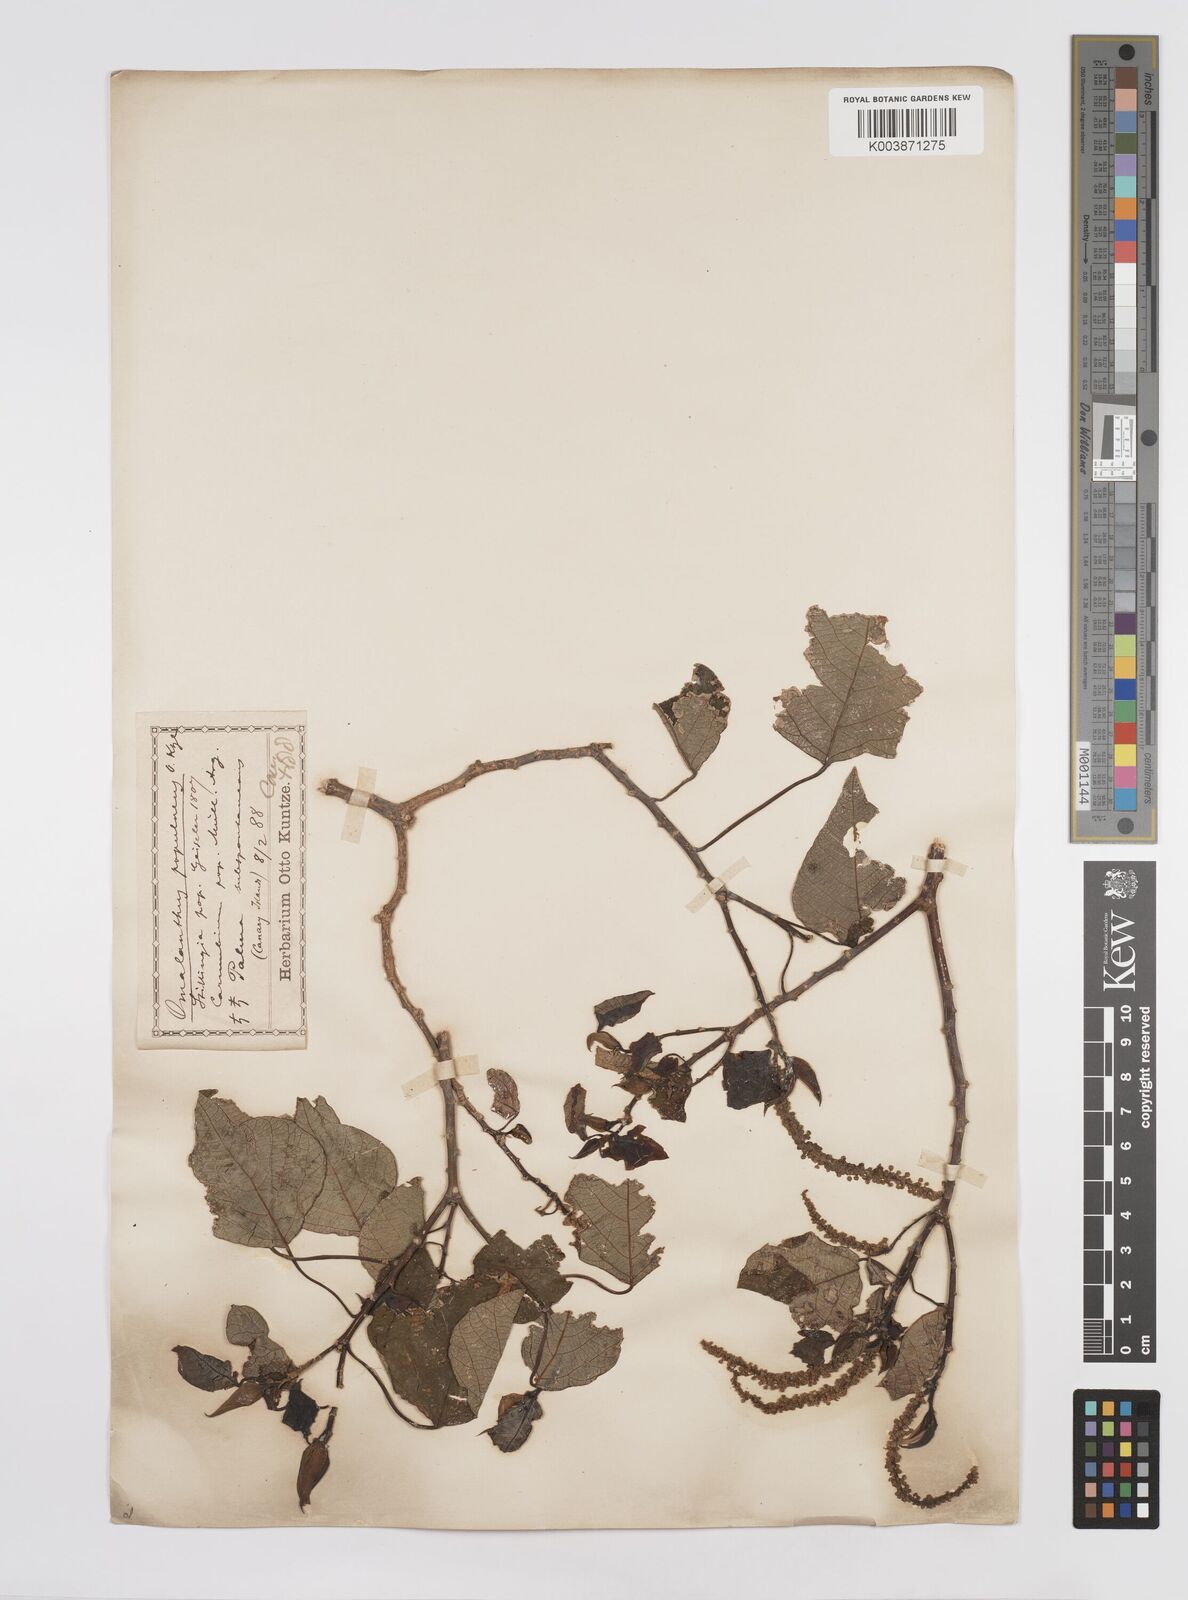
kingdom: Plantae
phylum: Tracheophyta
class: Magnoliopsida
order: Malpighiales
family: Euphorbiaceae
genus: Homalanthus
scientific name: Homalanthus populneus
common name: Spurge
